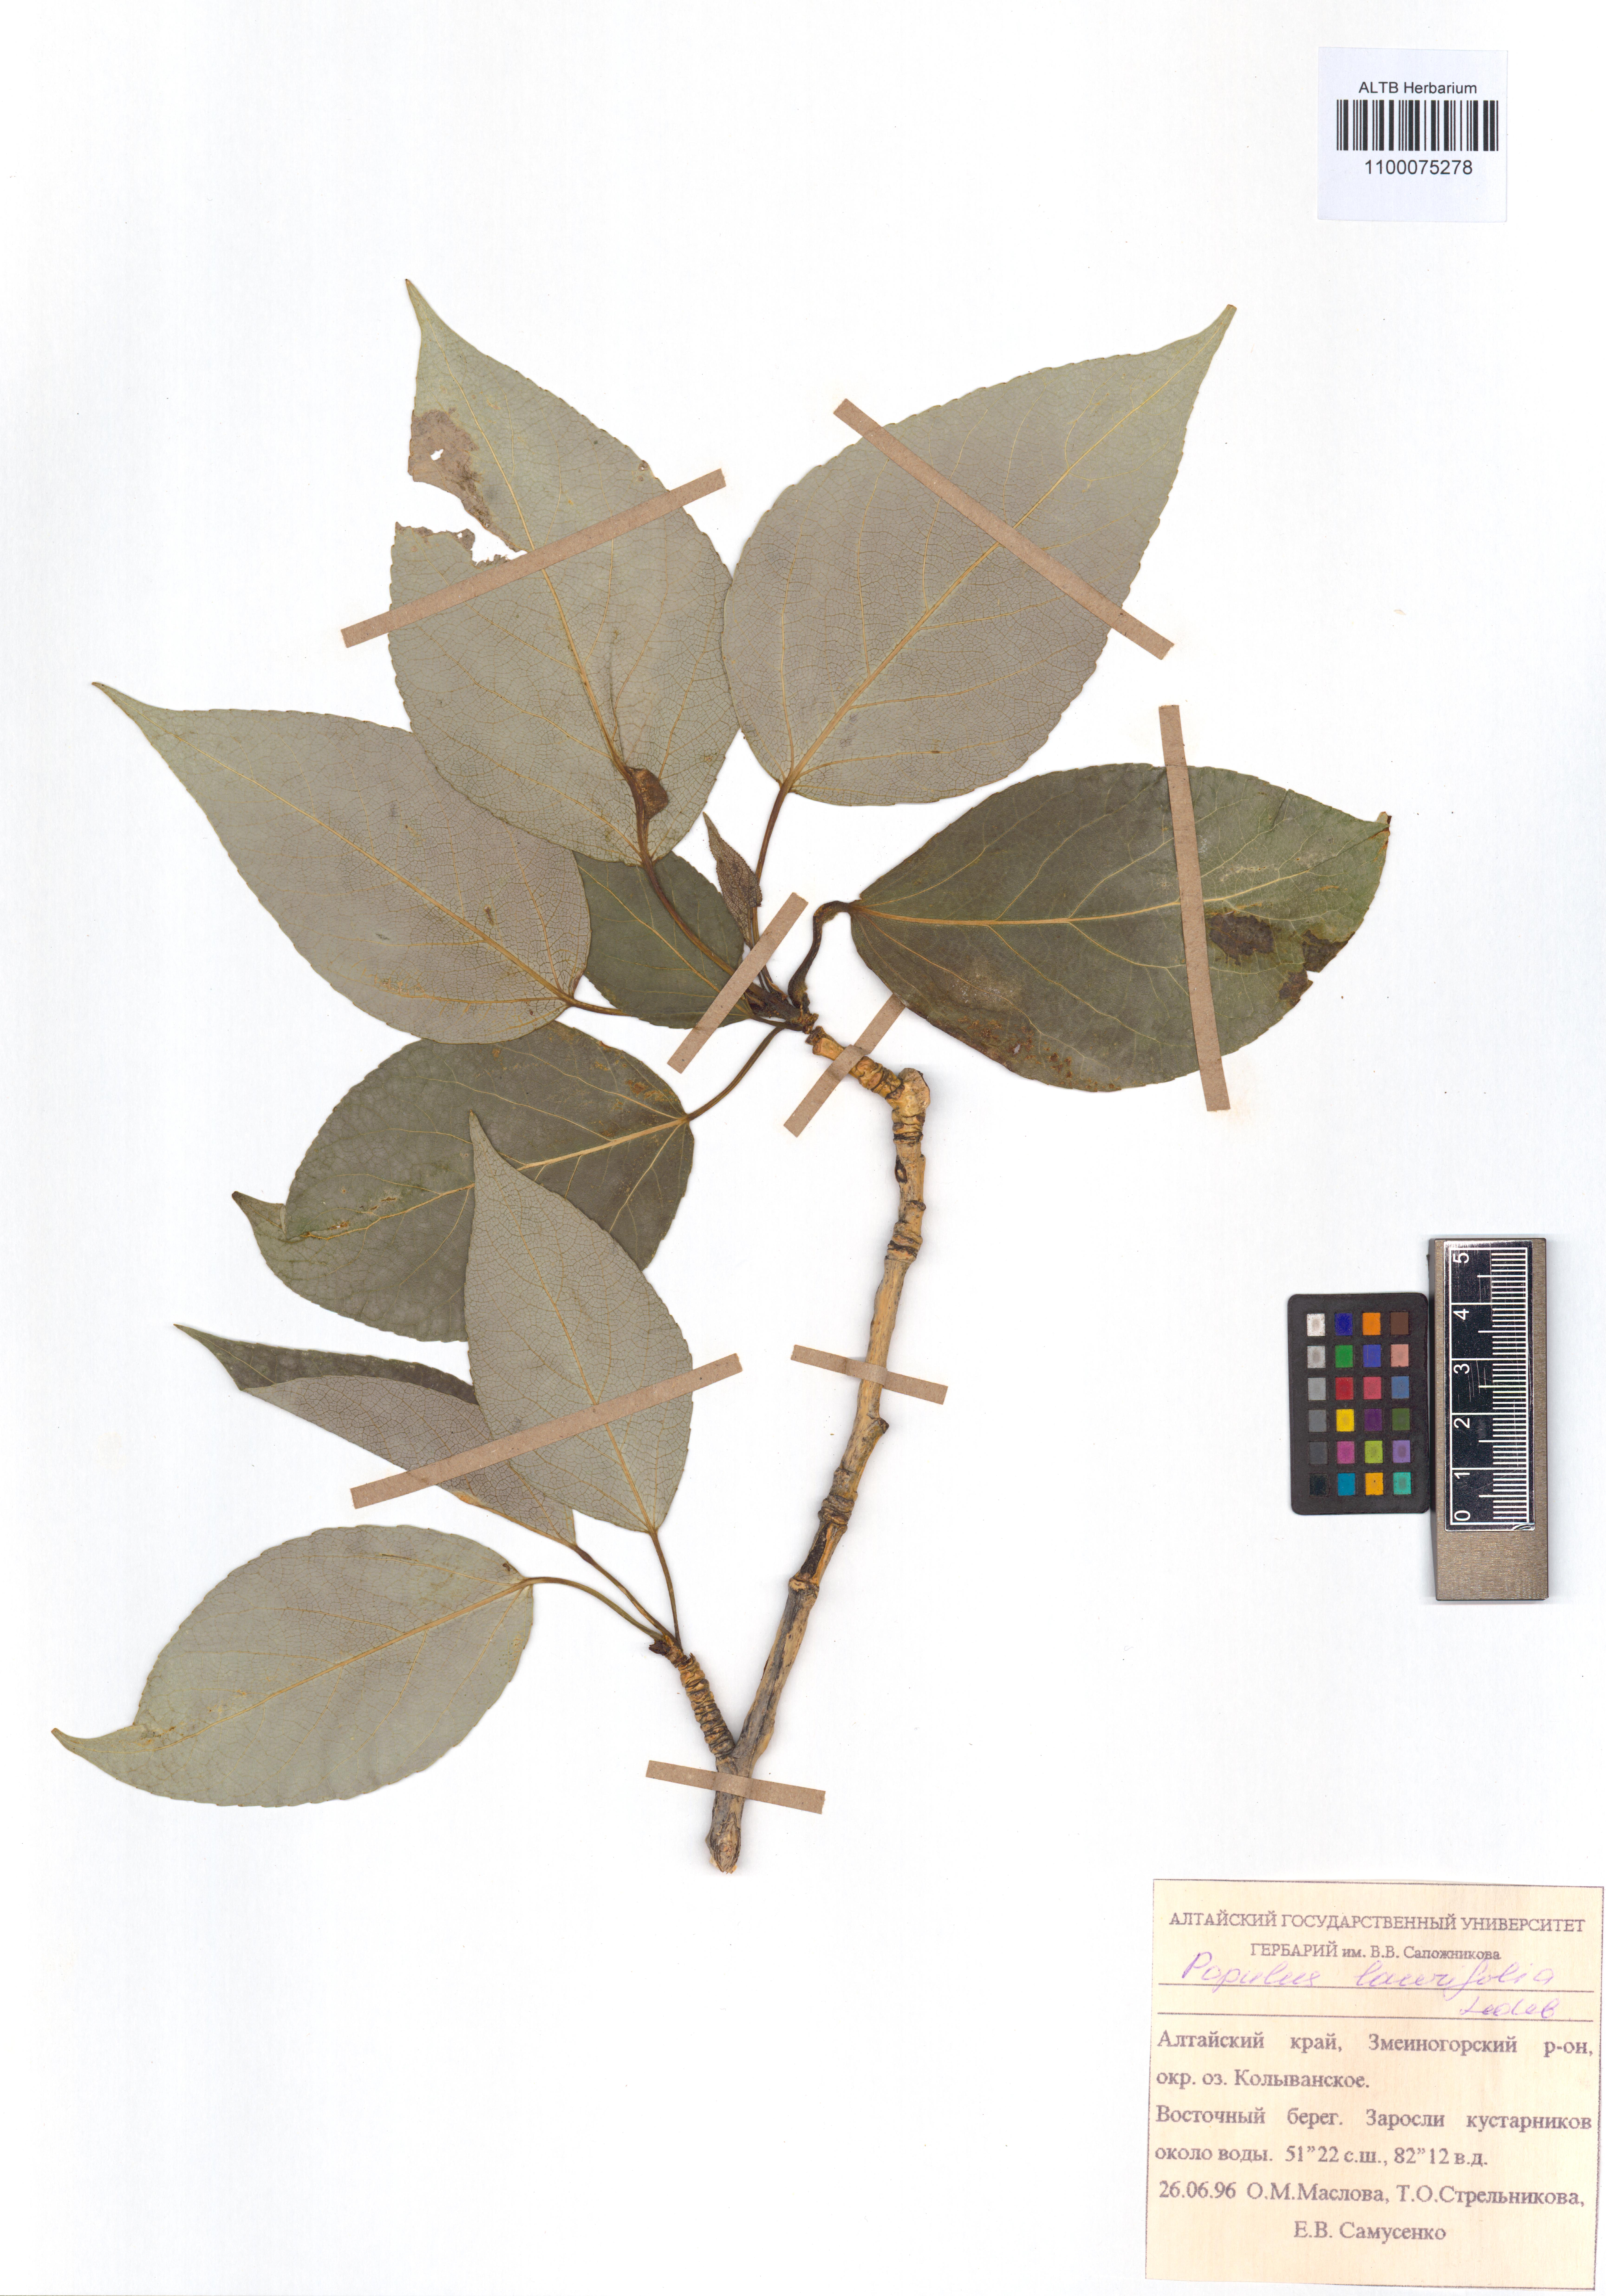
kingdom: Plantae
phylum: Tracheophyta
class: Magnoliopsida
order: Malpighiales
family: Salicaceae
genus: Populus
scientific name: Populus laurifolia
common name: Laurel-leaf poplar
